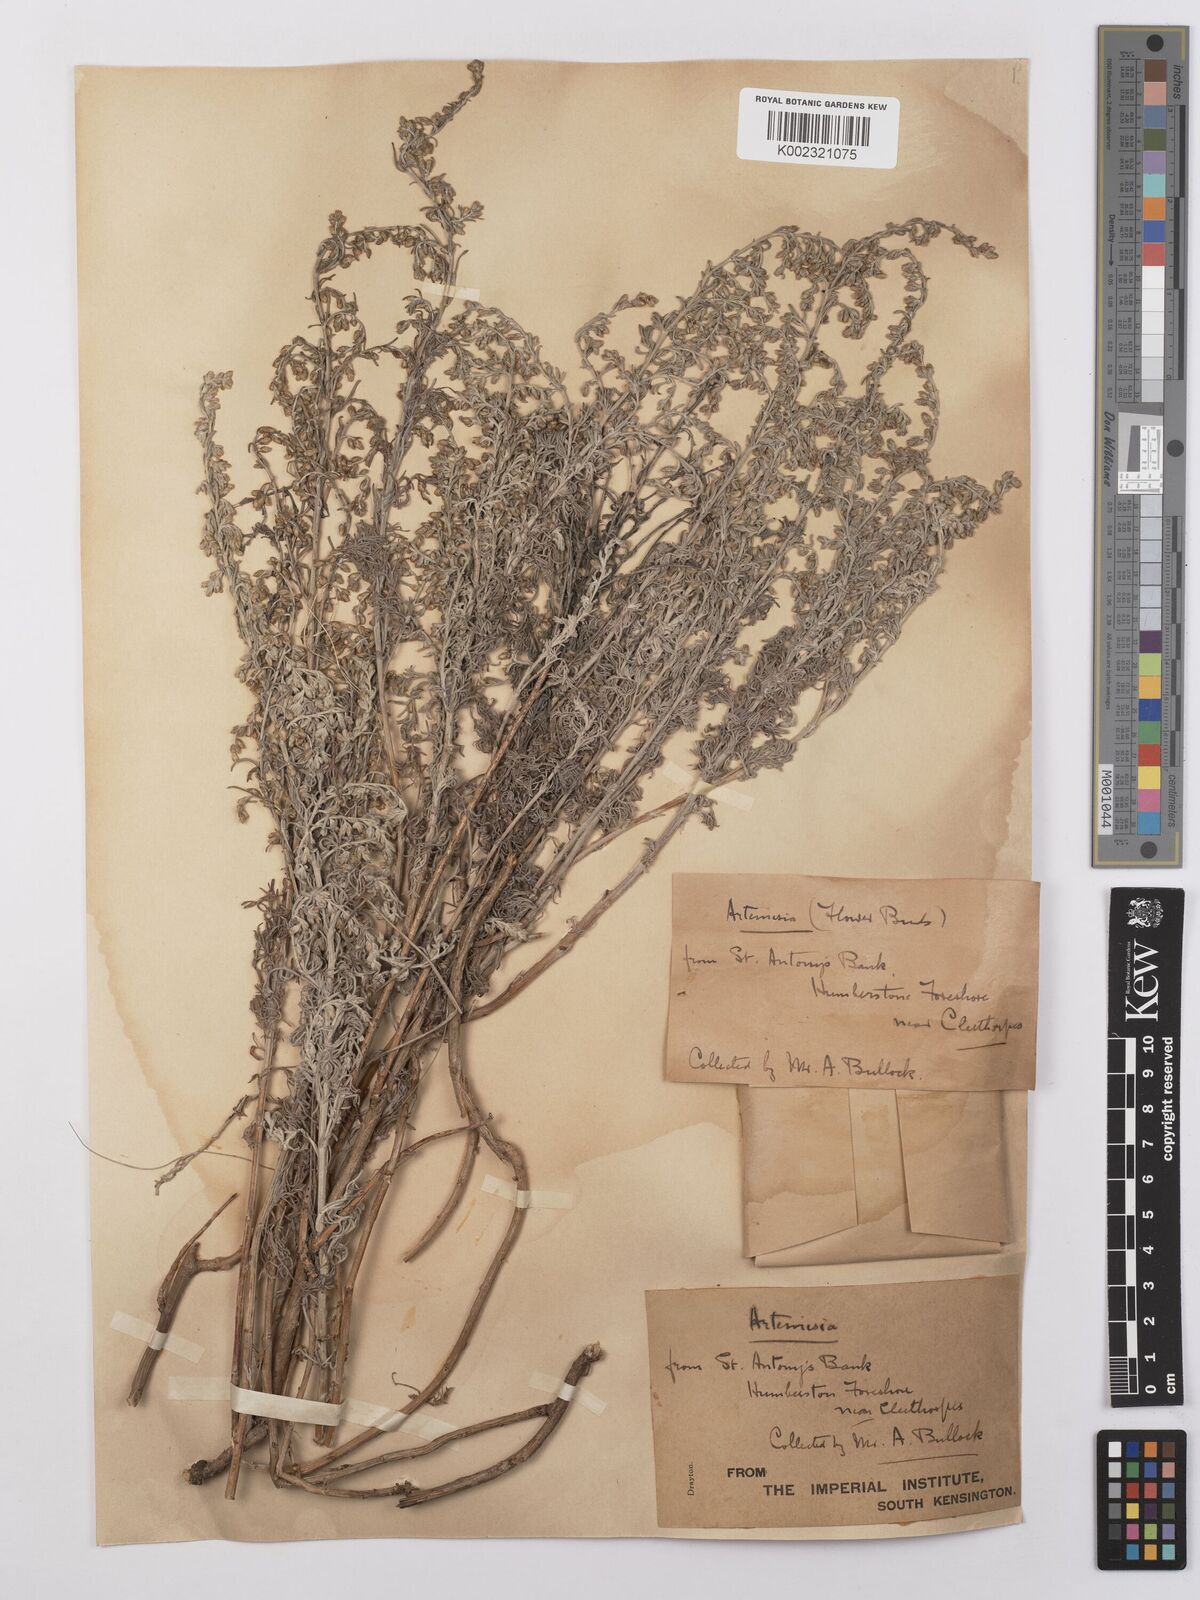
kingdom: Plantae
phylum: Tracheophyta
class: Magnoliopsida
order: Asterales
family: Asteraceae
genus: Artemisia
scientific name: Artemisia maritima
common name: Wormseed
